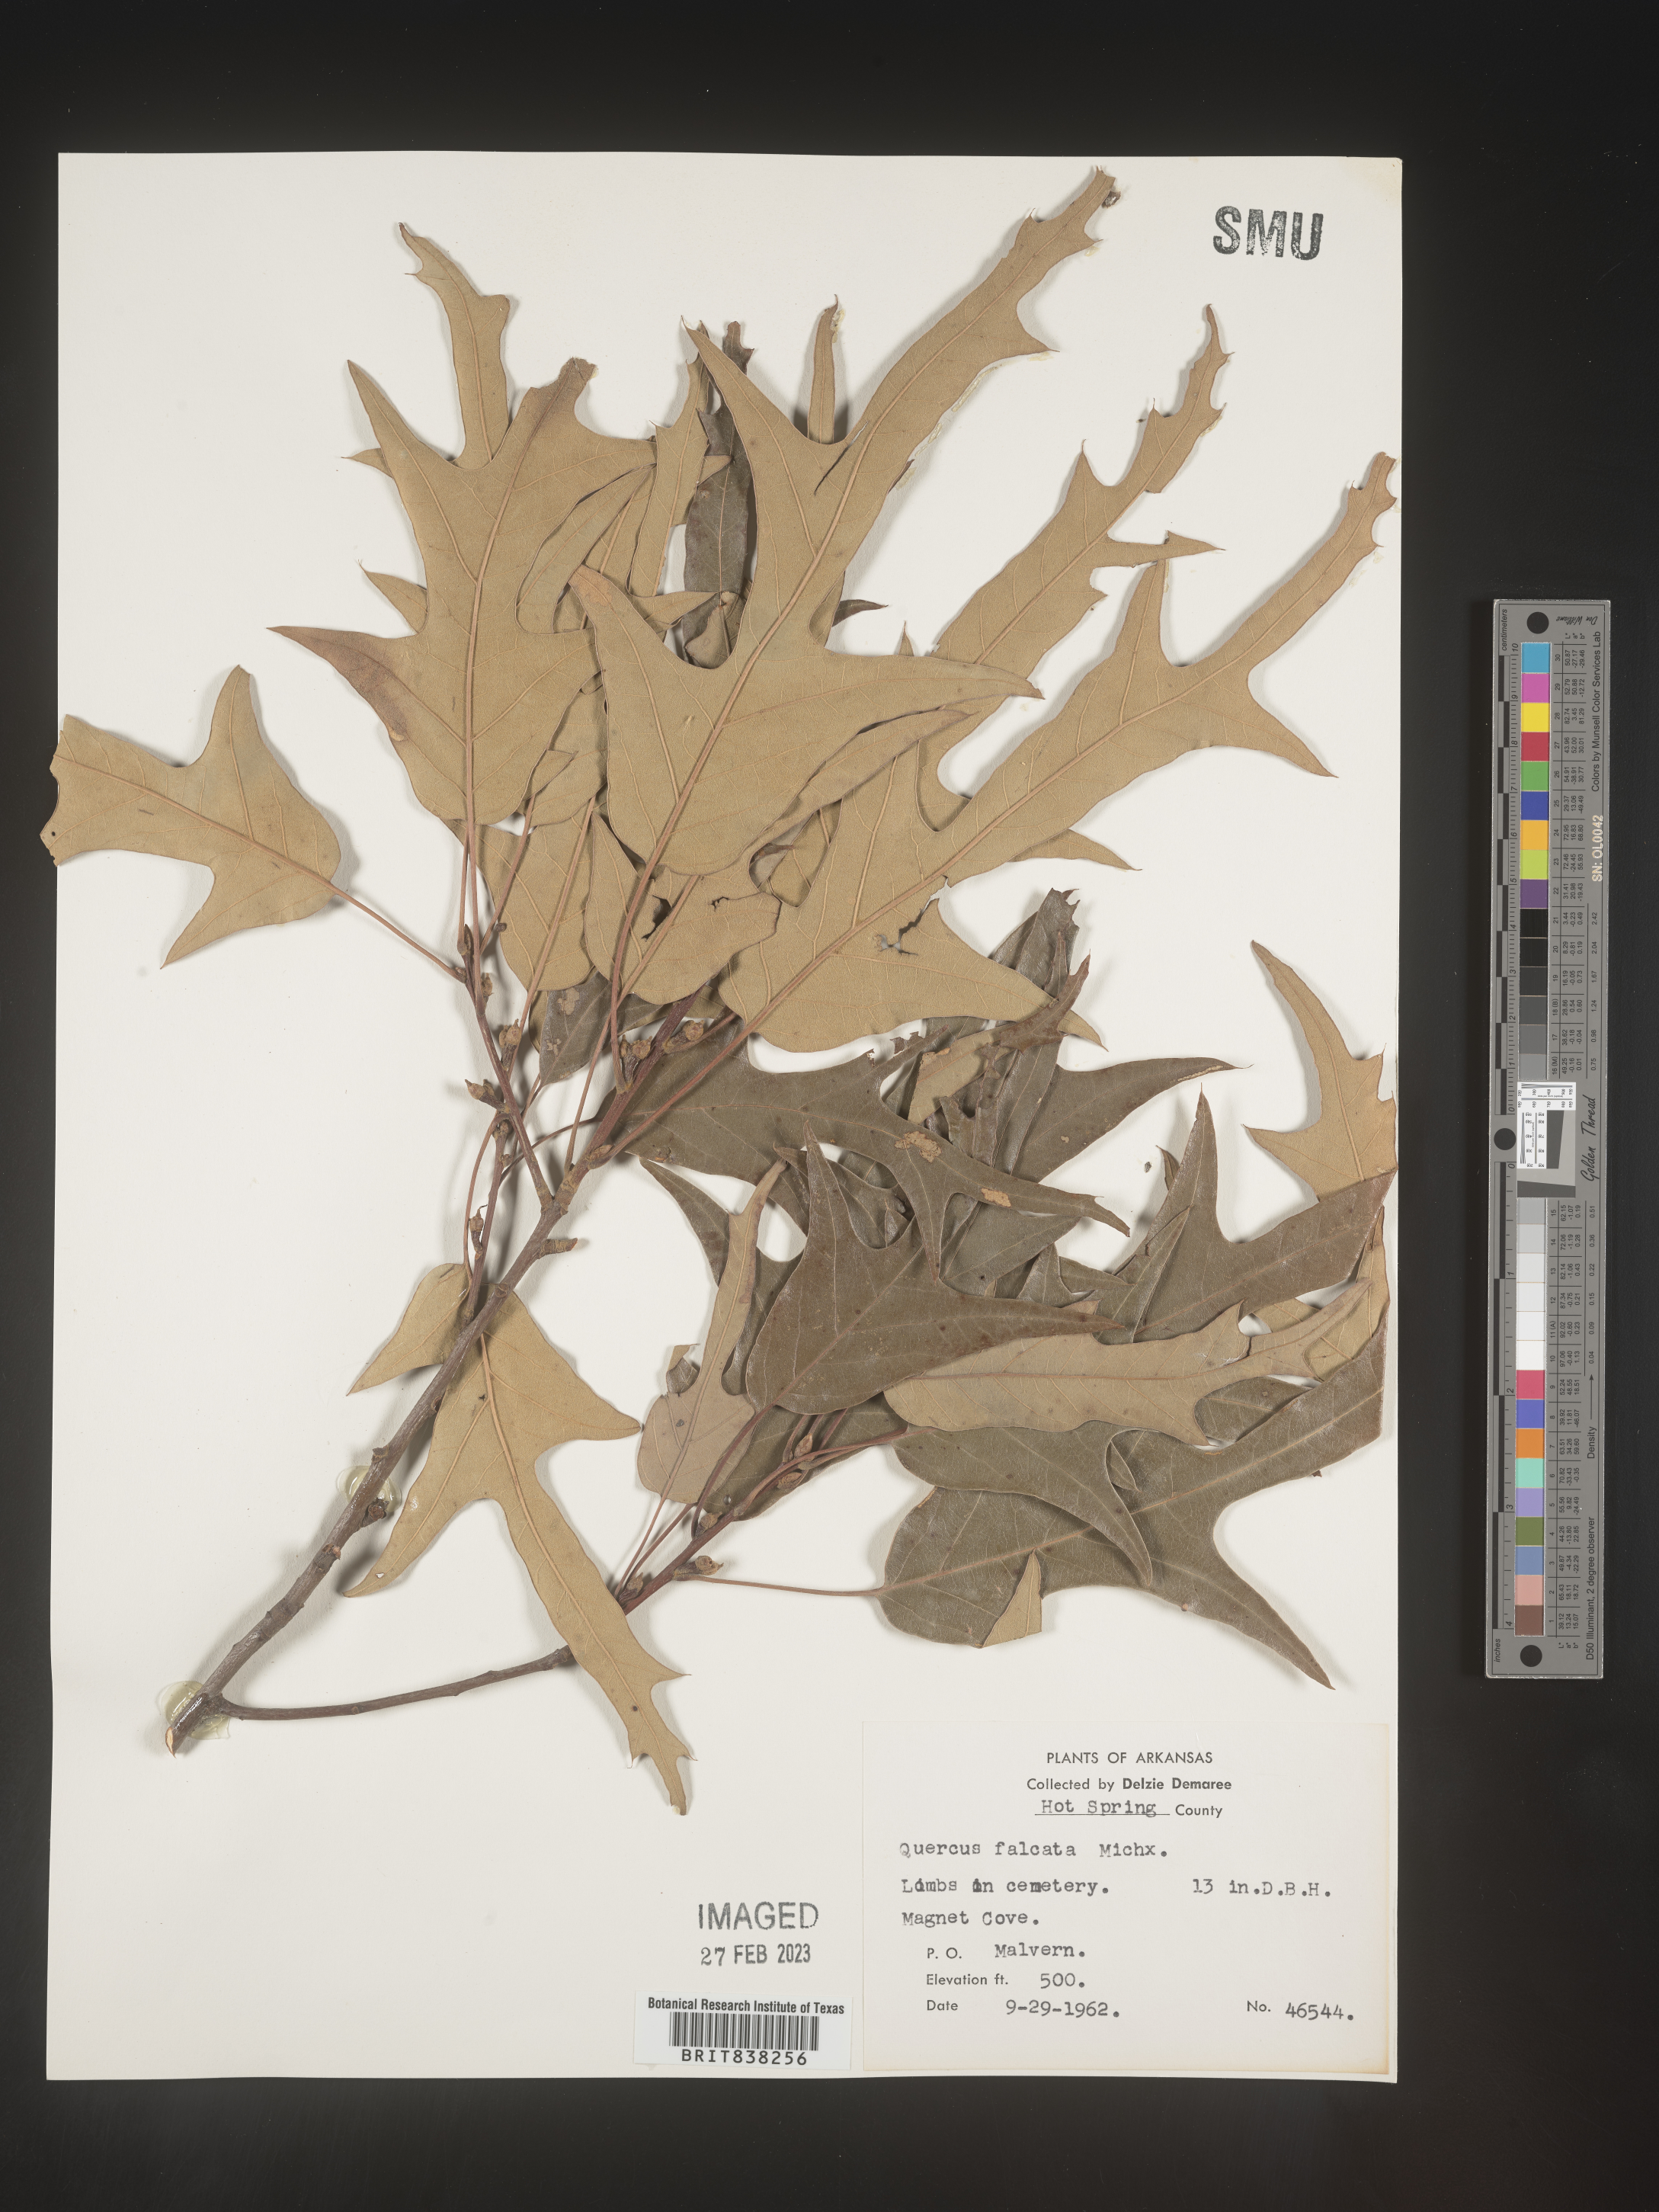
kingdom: Plantae
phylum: Tracheophyta
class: Magnoliopsida
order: Fagales
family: Fagaceae
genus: Quercus
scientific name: Quercus falcata
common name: Southern red oak
